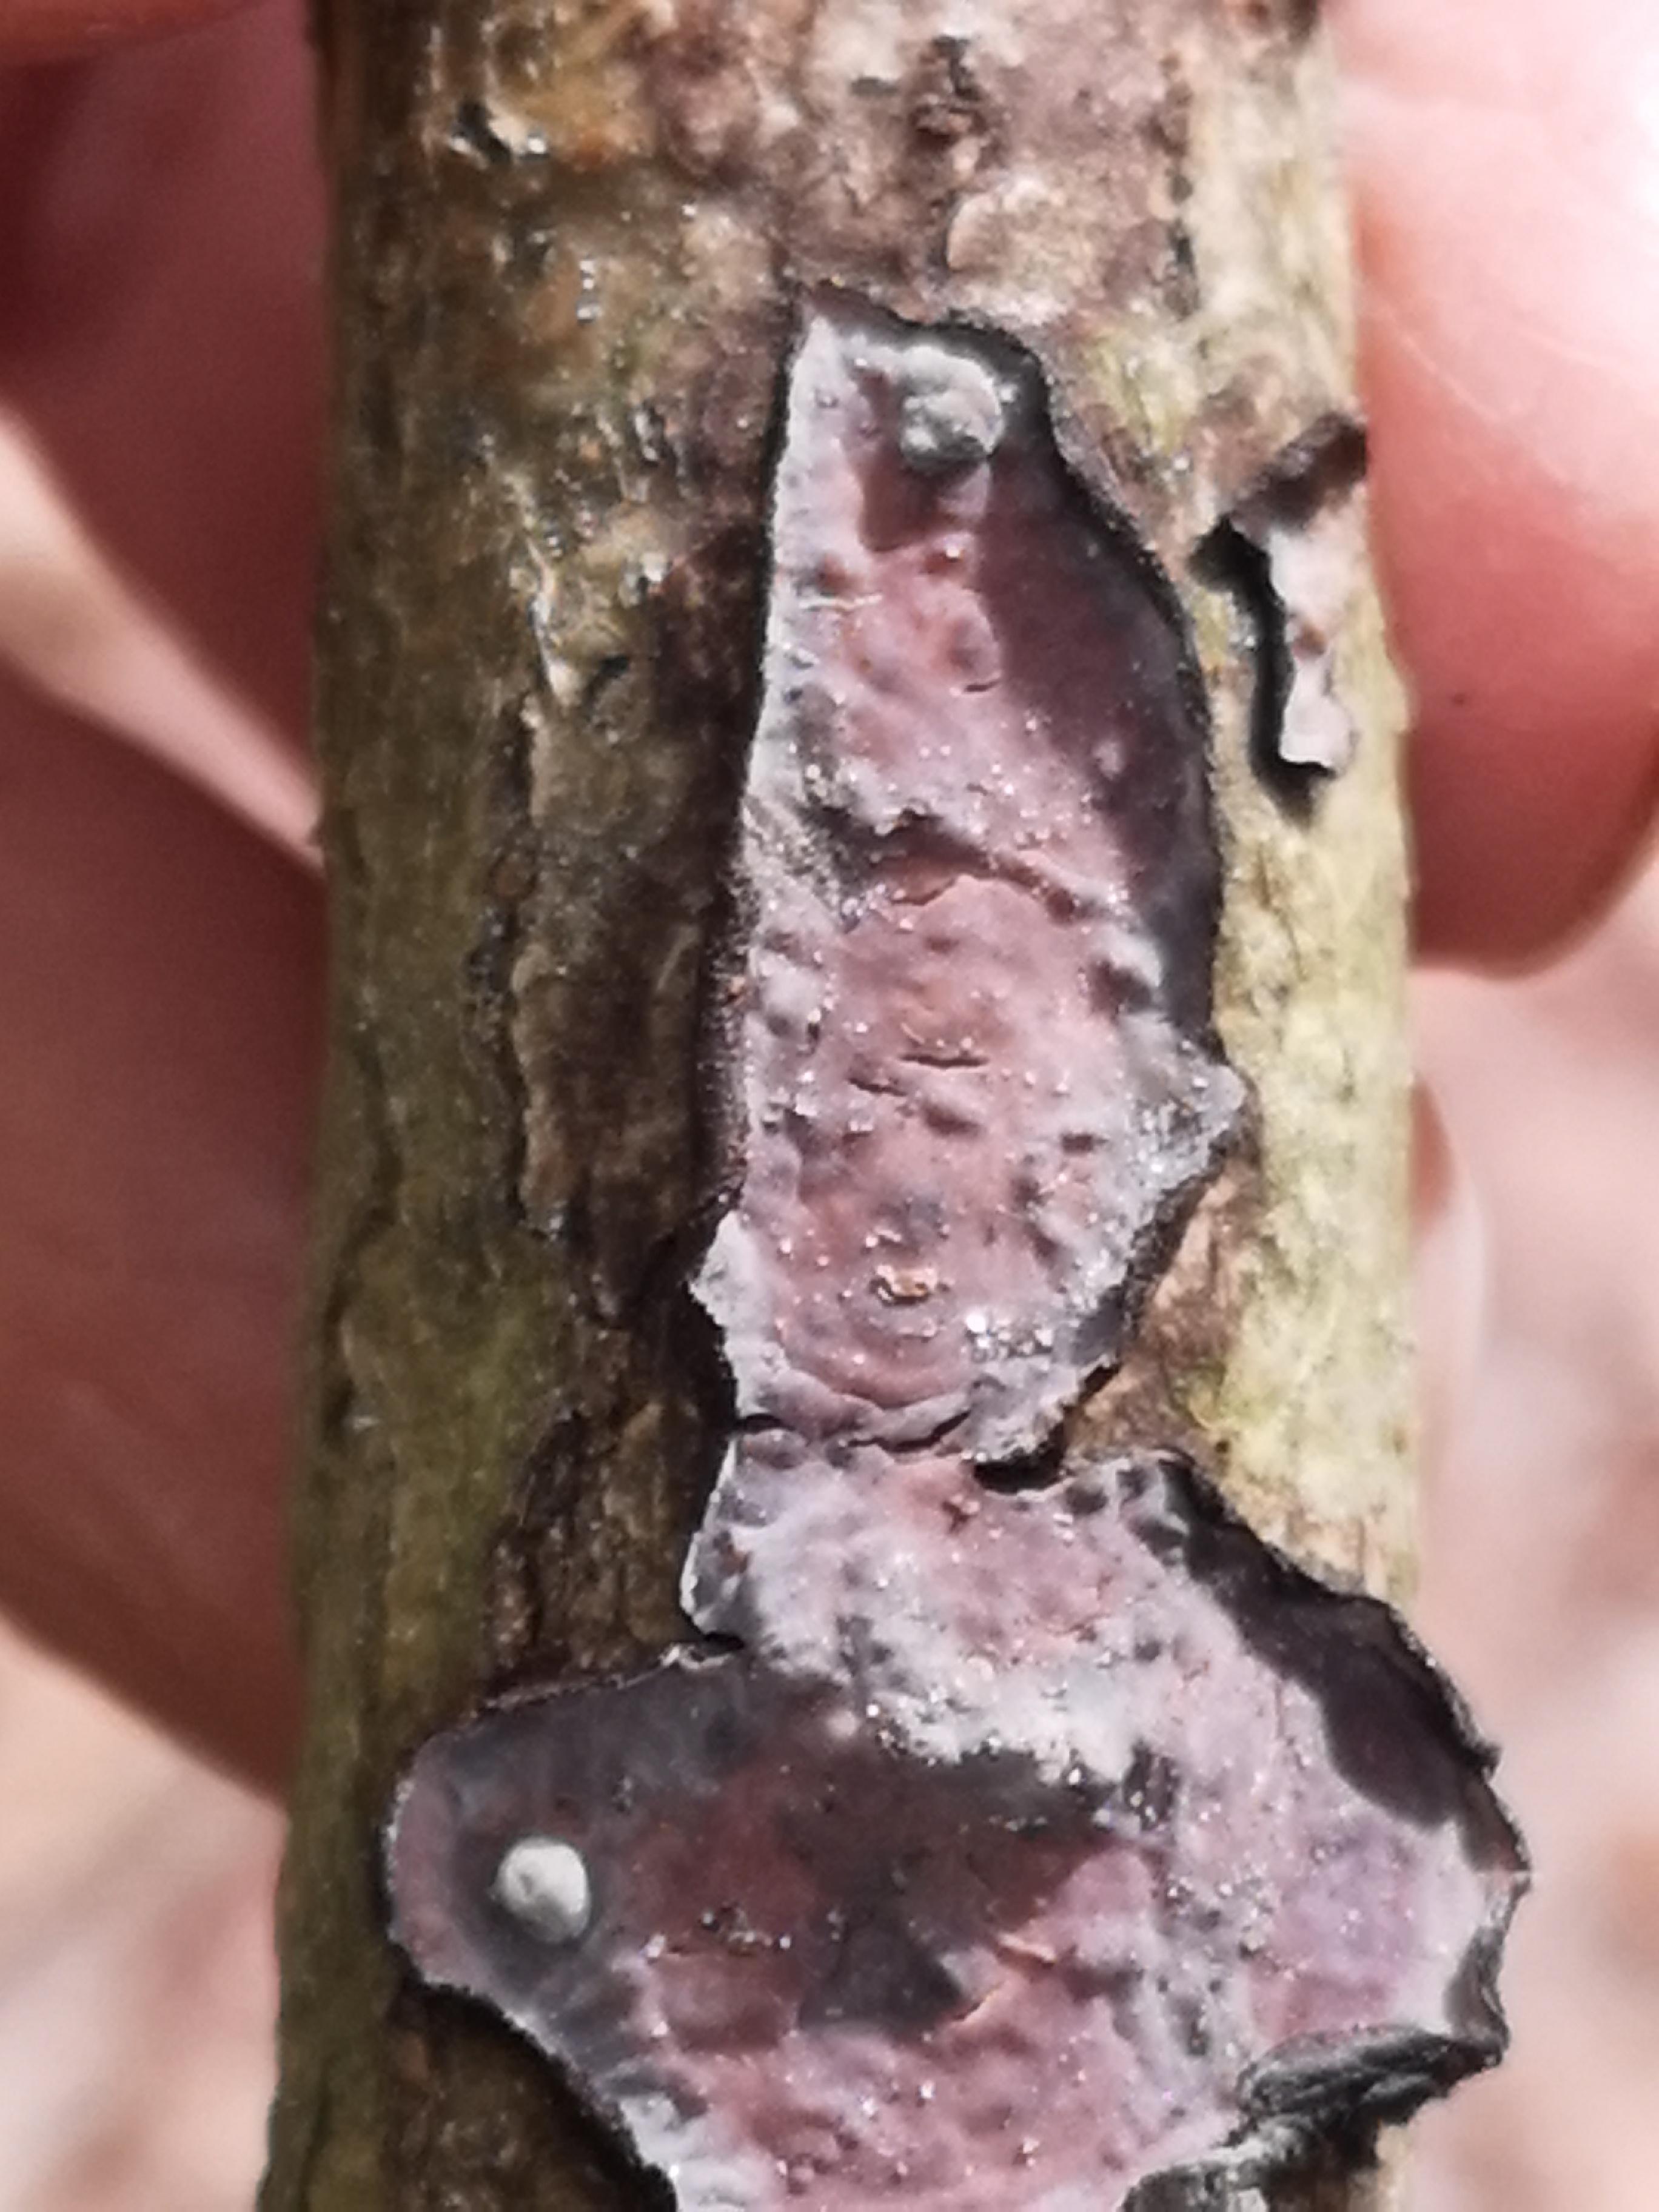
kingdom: Fungi
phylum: Basidiomycota
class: Agaricomycetes
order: Russulales
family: Peniophoraceae
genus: Peniophora
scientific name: Peniophora quercina
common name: ege-voksskind
